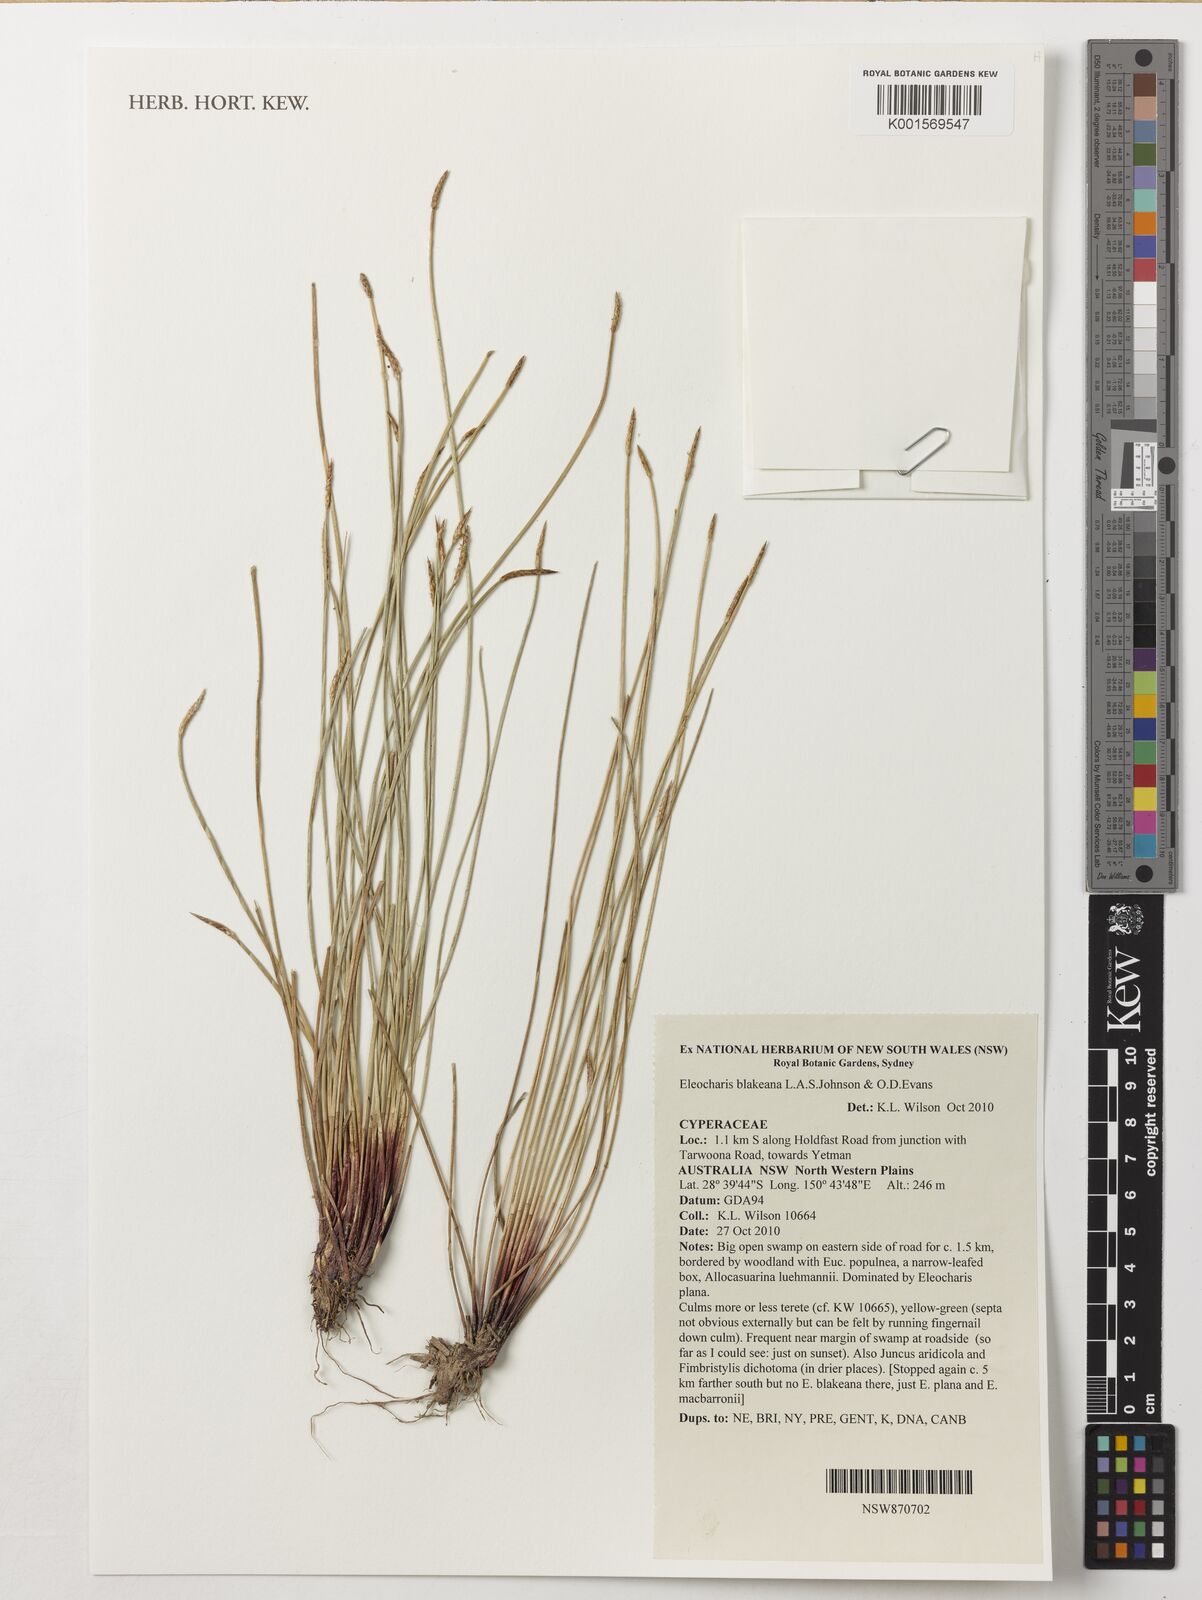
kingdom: Plantae
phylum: Tracheophyta
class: Liliopsida
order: Poales
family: Cyperaceae
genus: Eleocharis
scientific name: Eleocharis blakeana
